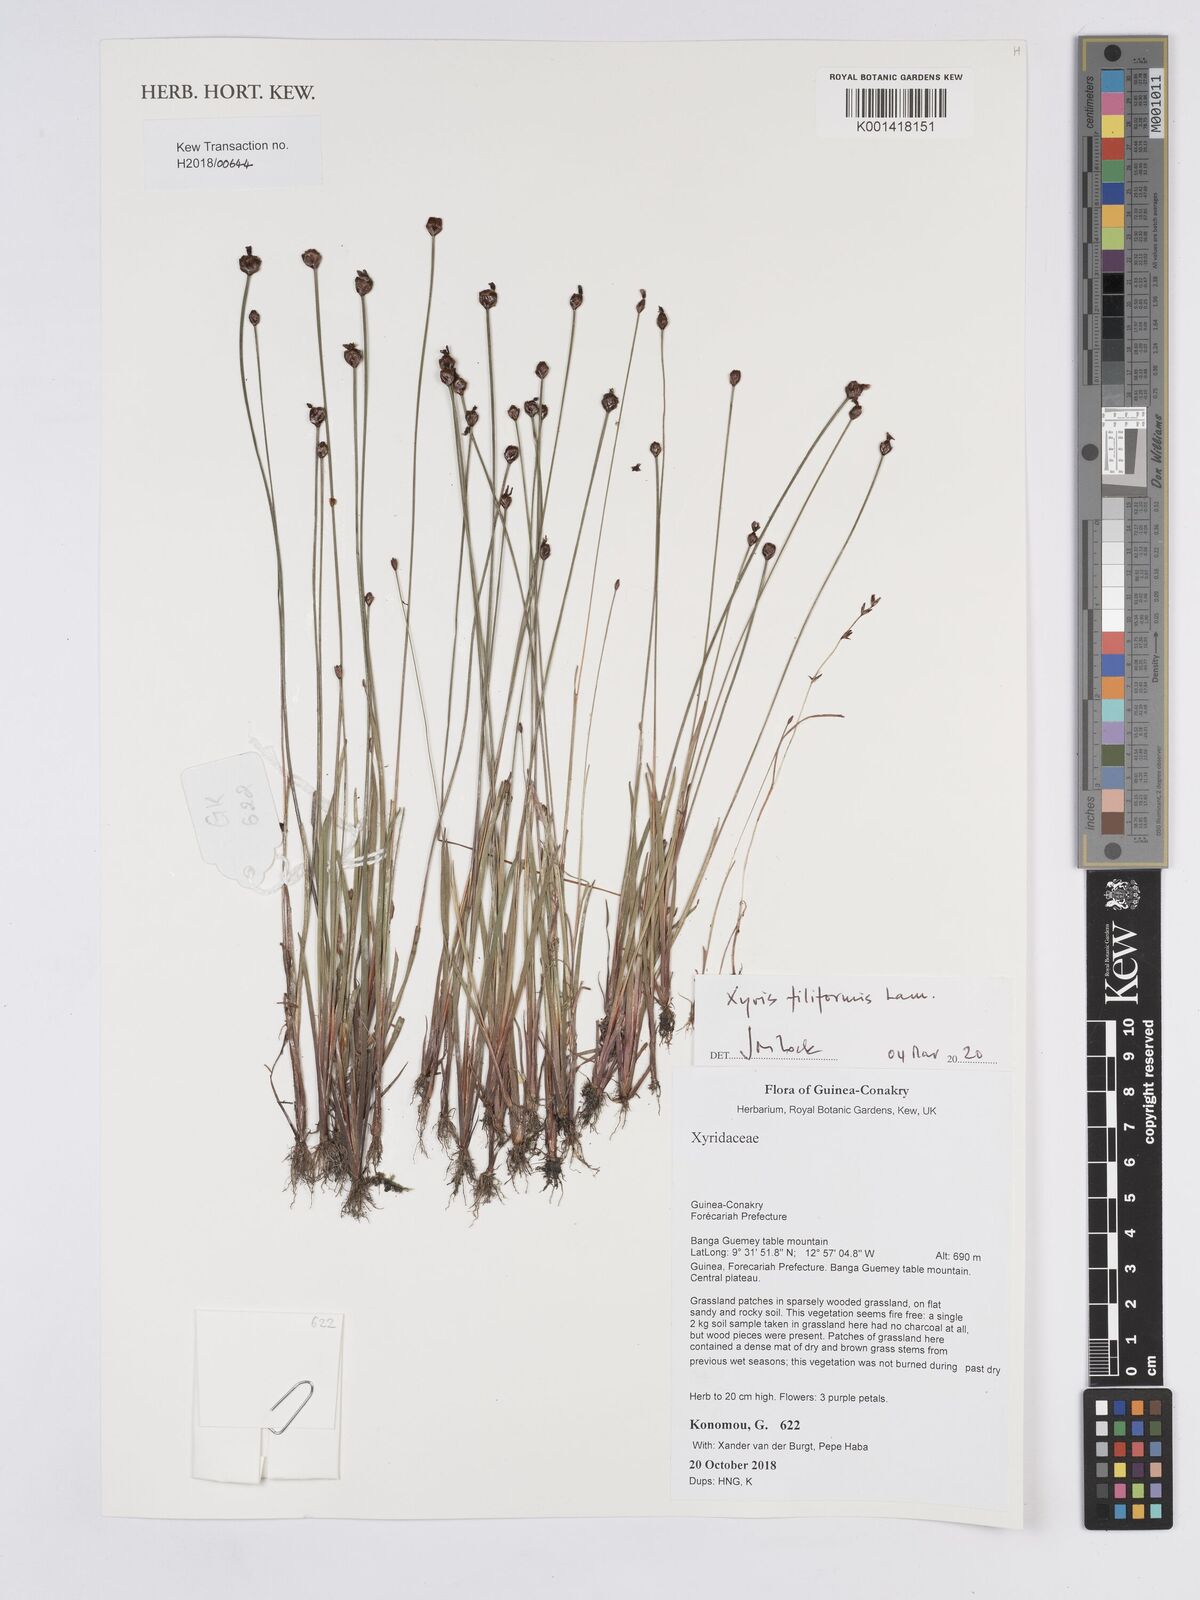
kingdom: Plantae
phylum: Tracheophyta
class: Liliopsida
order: Poales
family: Xyridaceae
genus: Xyris
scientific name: Xyris filiformis
